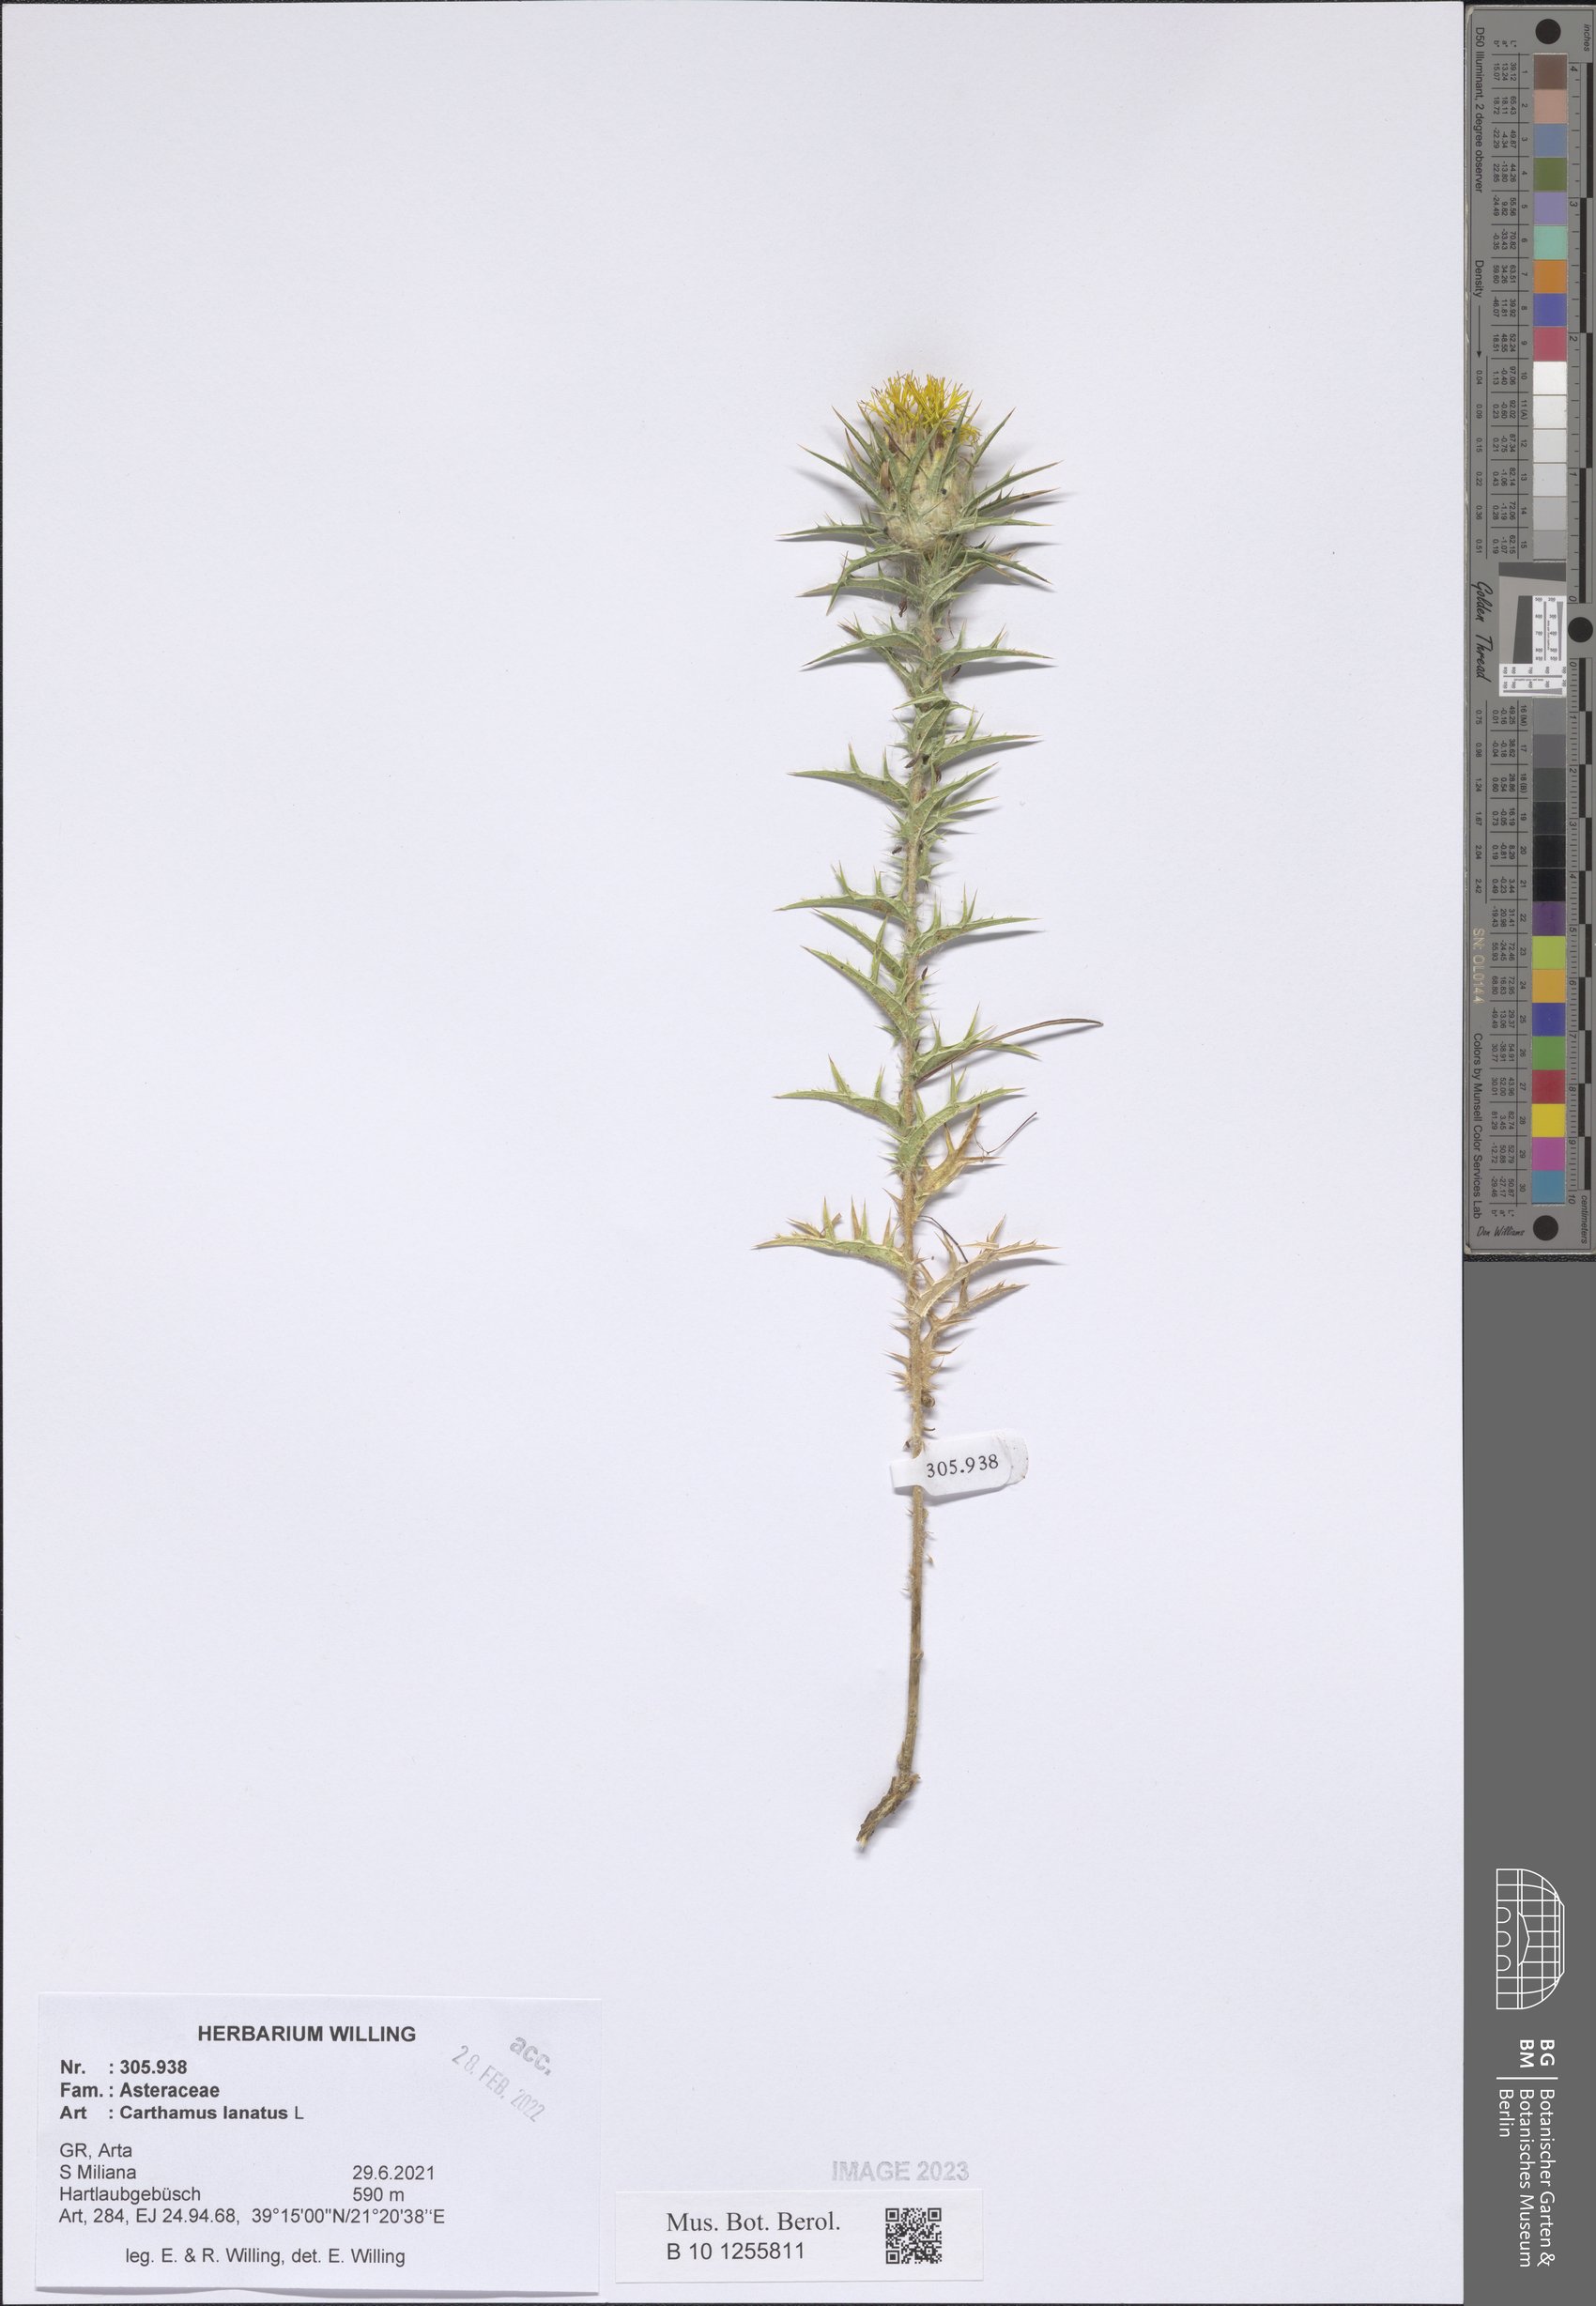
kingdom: Plantae
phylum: Tracheophyta
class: Magnoliopsida
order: Asterales
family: Asteraceae
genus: Carthamus
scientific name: Carthamus lanatus
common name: Downy safflower
